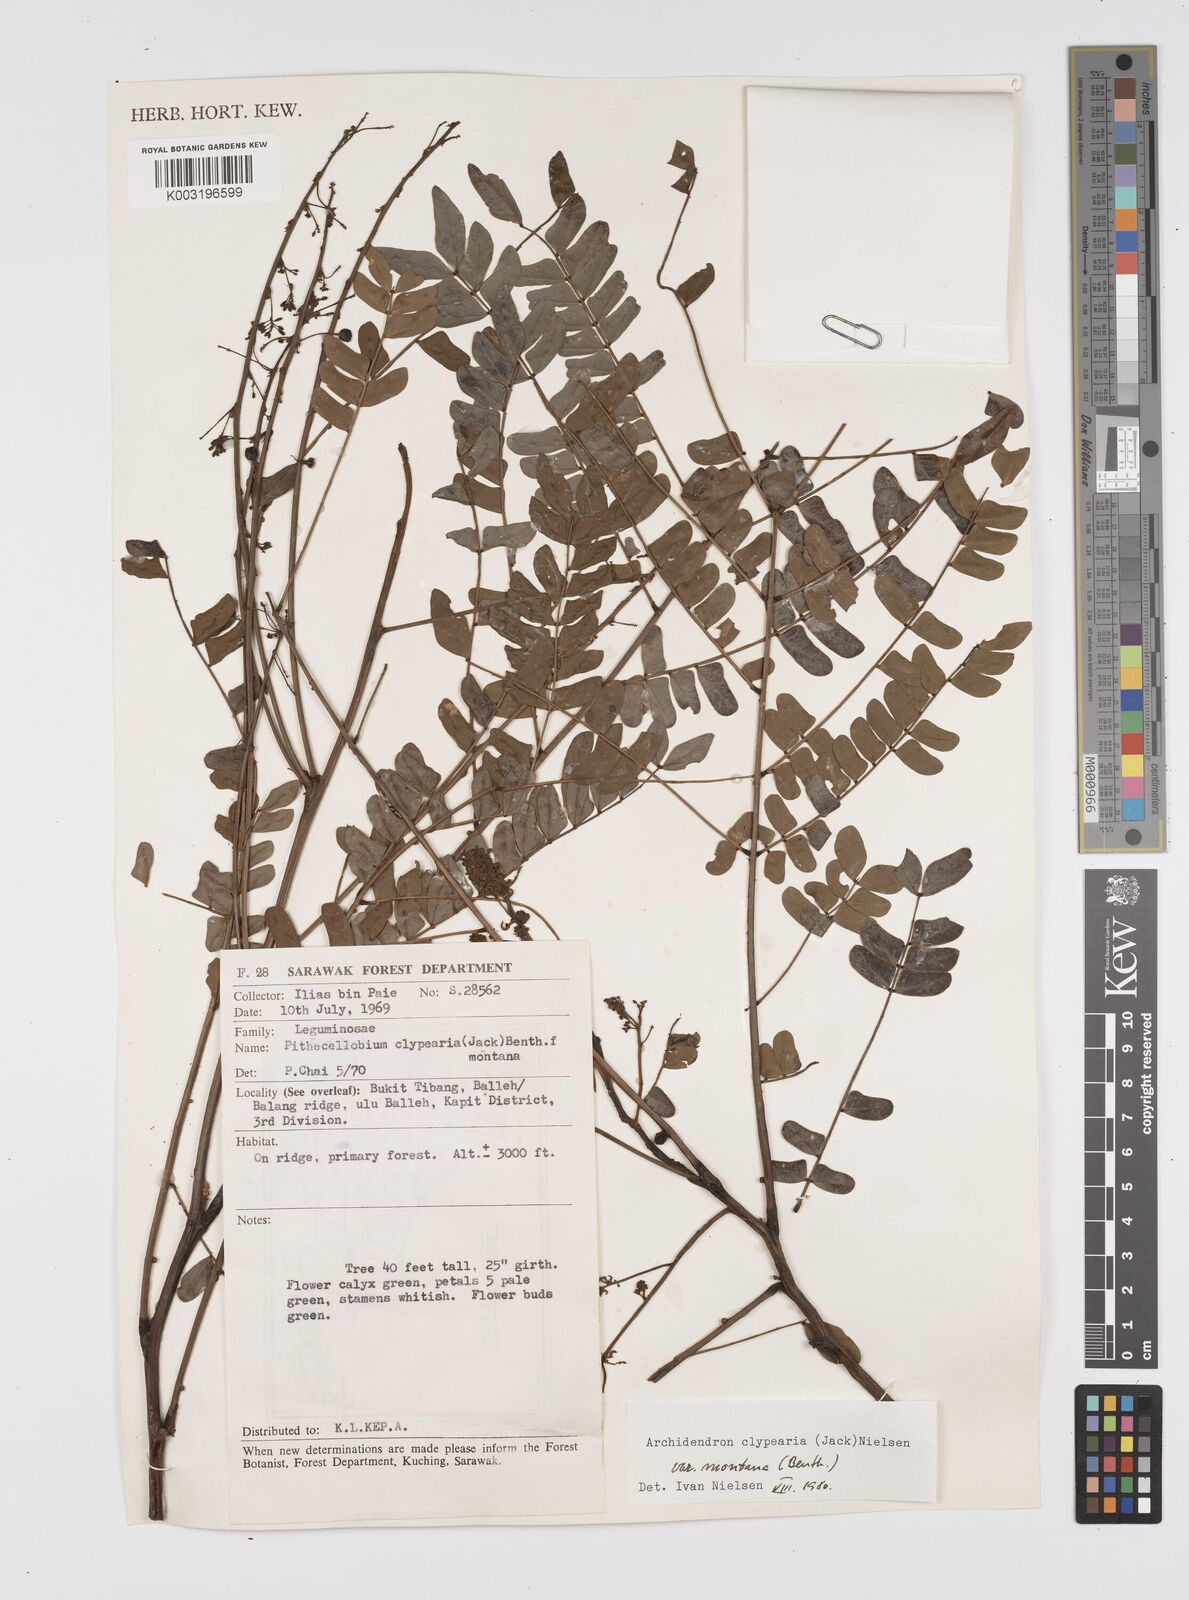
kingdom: Plantae
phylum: Tracheophyta
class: Magnoliopsida
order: Fabales
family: Fabaceae
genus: Archidendron
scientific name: Archidendron clypearia
